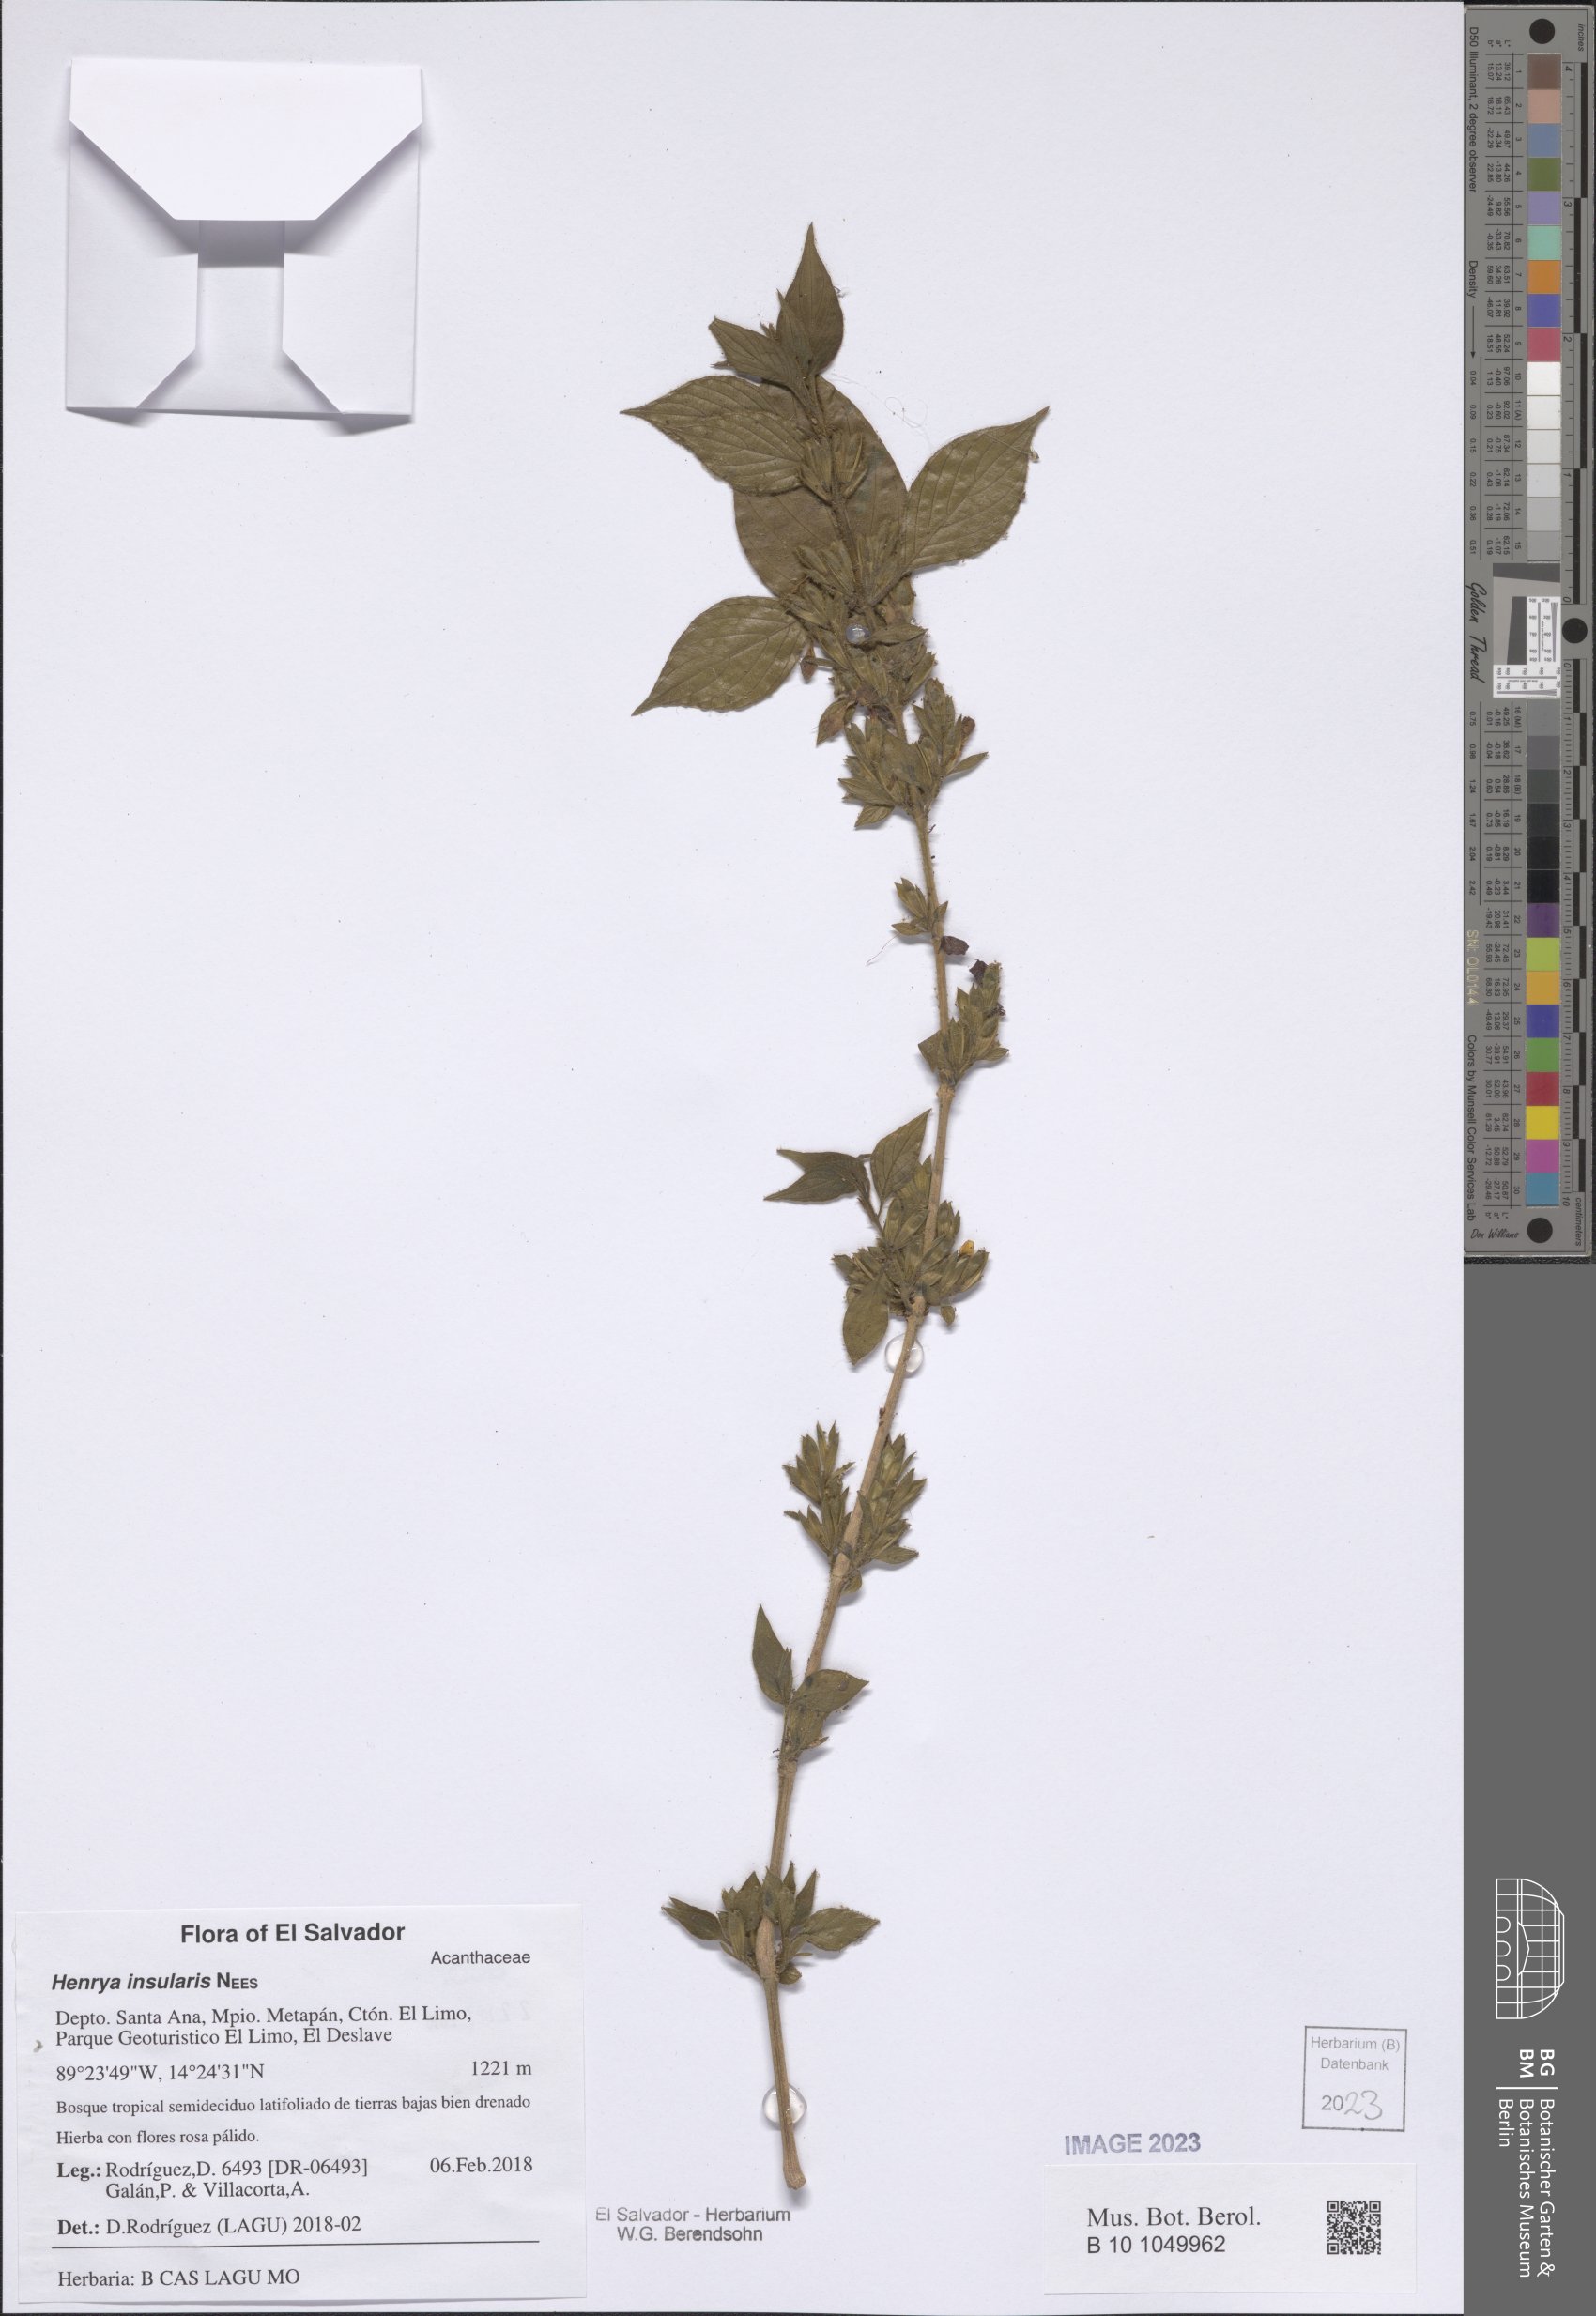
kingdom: Plantae
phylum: Tracheophyta
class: Magnoliopsida
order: Lamiales
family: Acanthaceae
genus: Henrya
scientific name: Henrya insularis
